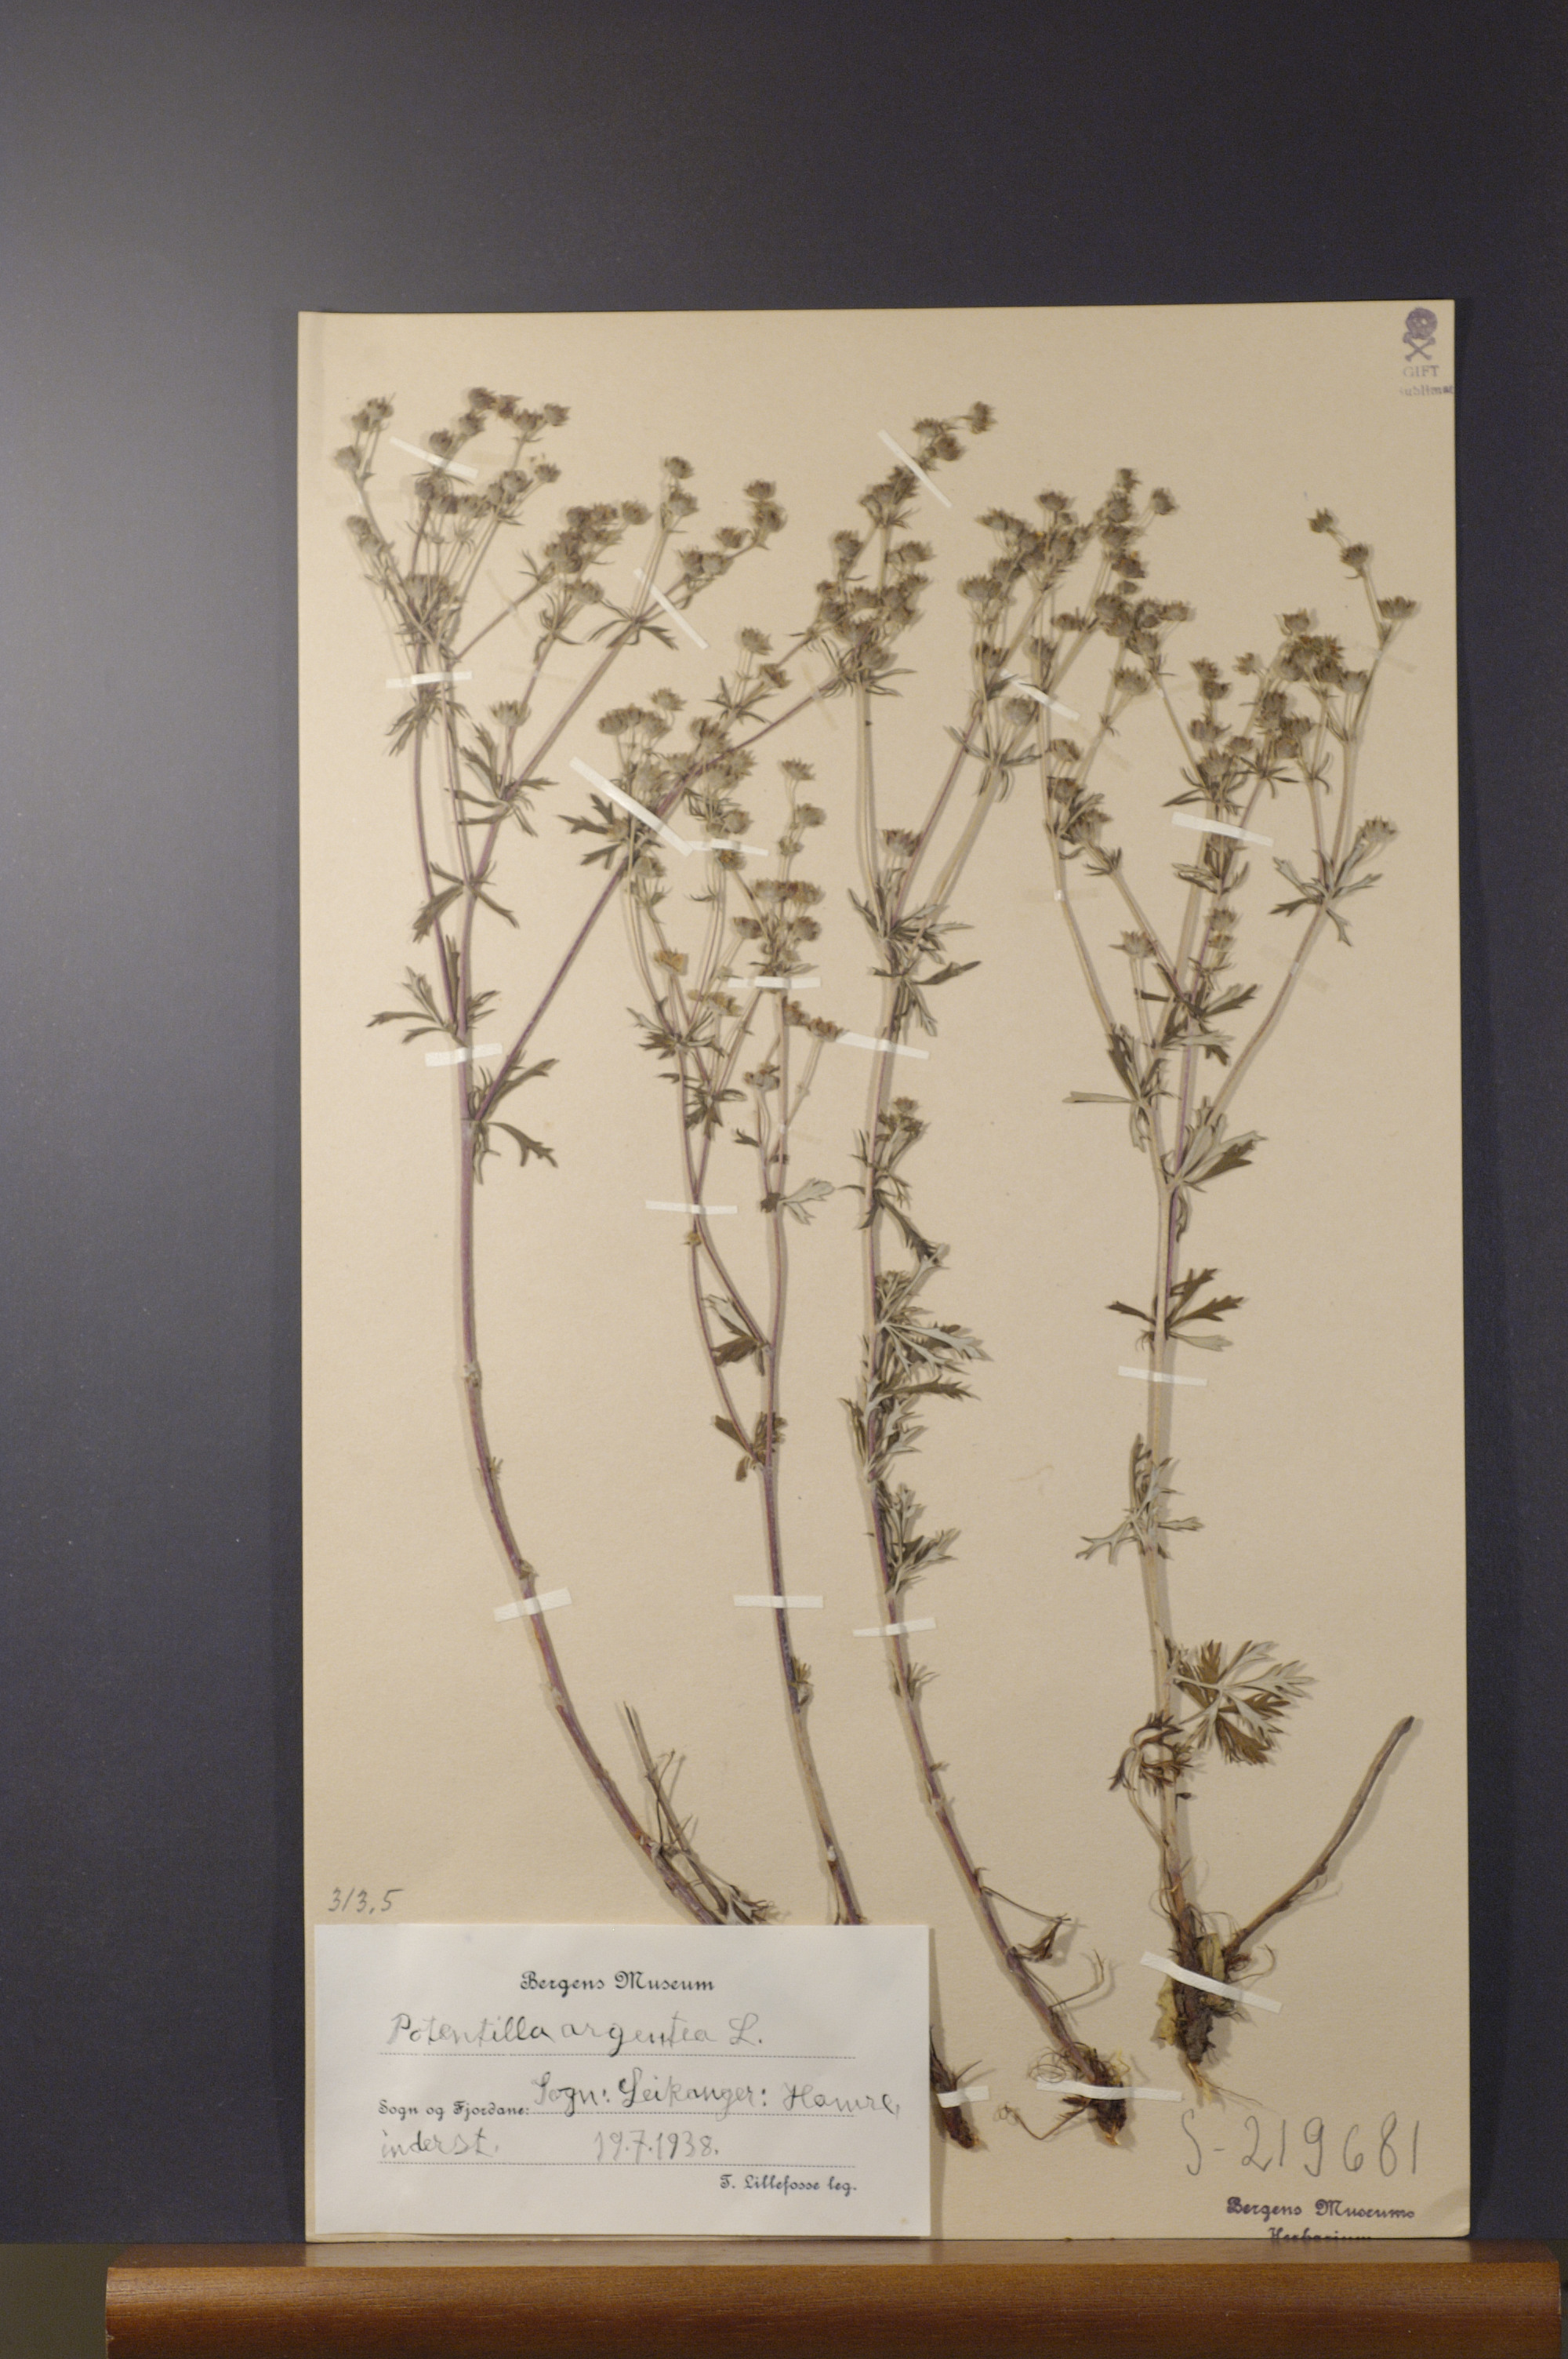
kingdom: Plantae
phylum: Tracheophyta
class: Magnoliopsida
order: Rosales
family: Rosaceae
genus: Potentilla
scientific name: Potentilla argentea
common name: Hoary cinquefoil
